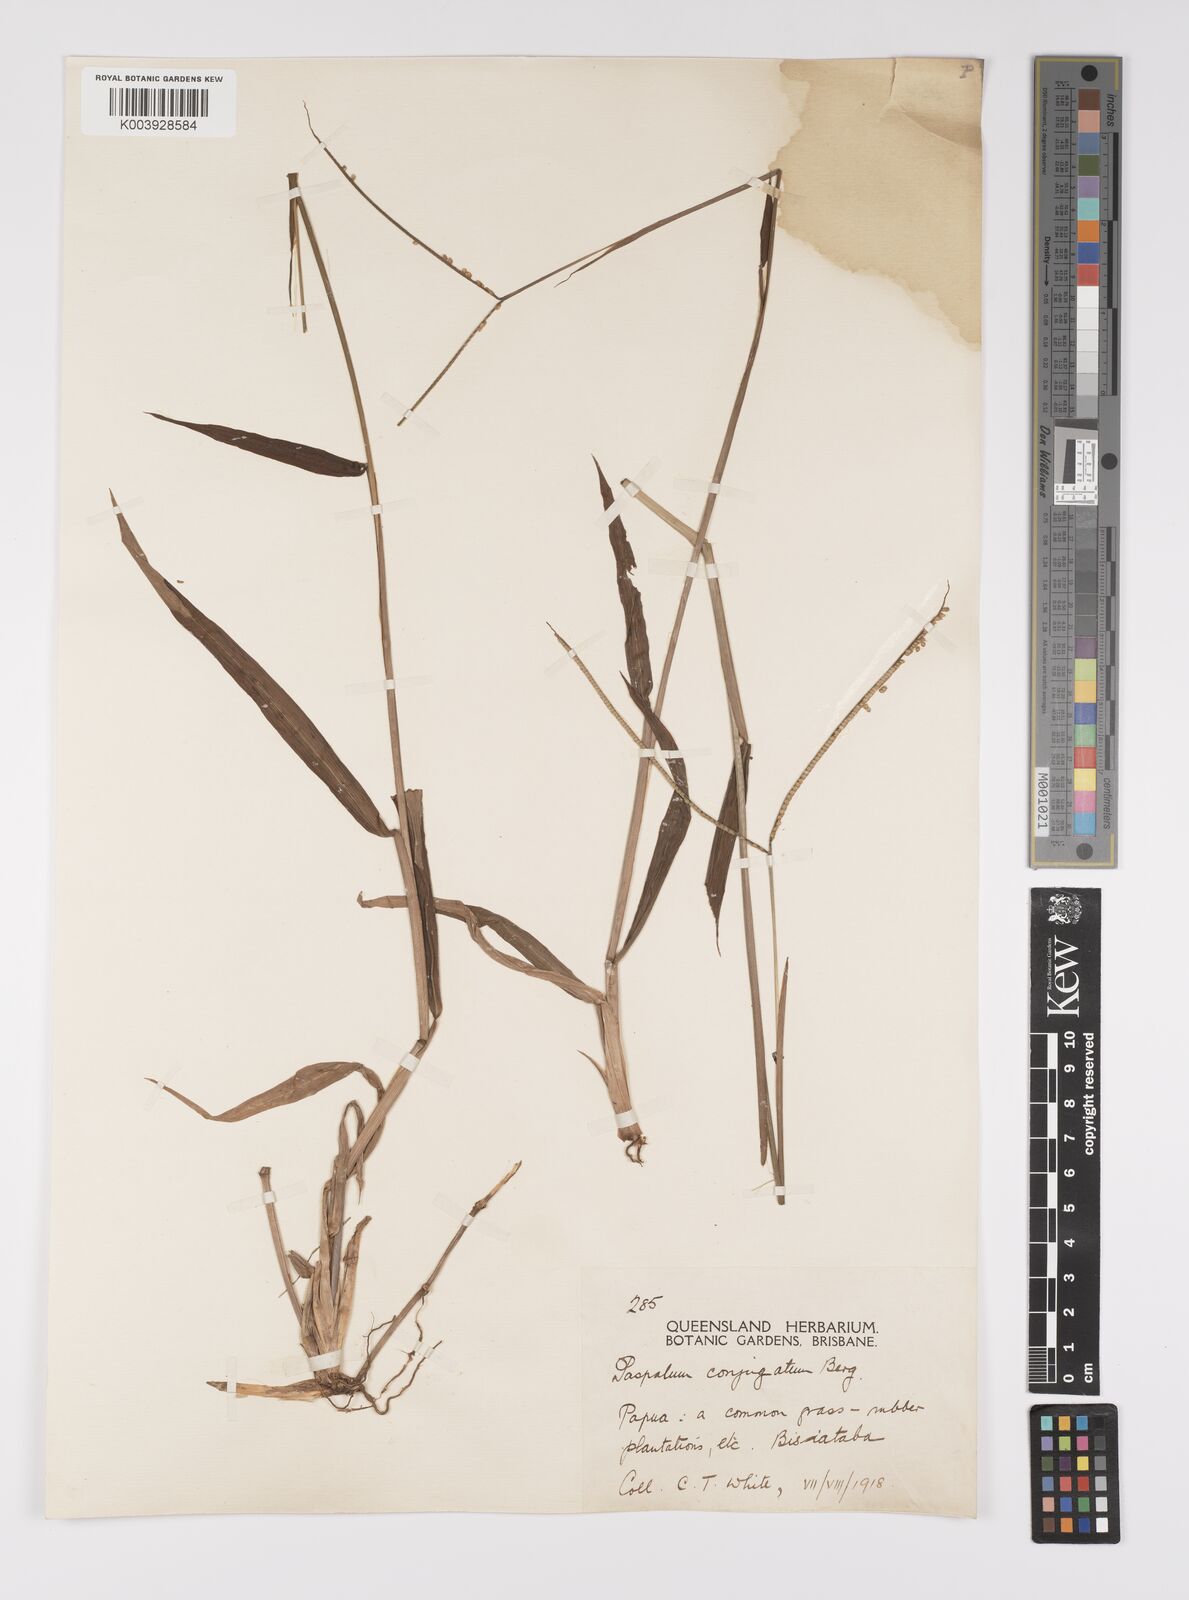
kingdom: Plantae
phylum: Tracheophyta
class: Liliopsida
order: Poales
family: Poaceae
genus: Paspalum
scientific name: Paspalum conjugatum
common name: Hilograss
